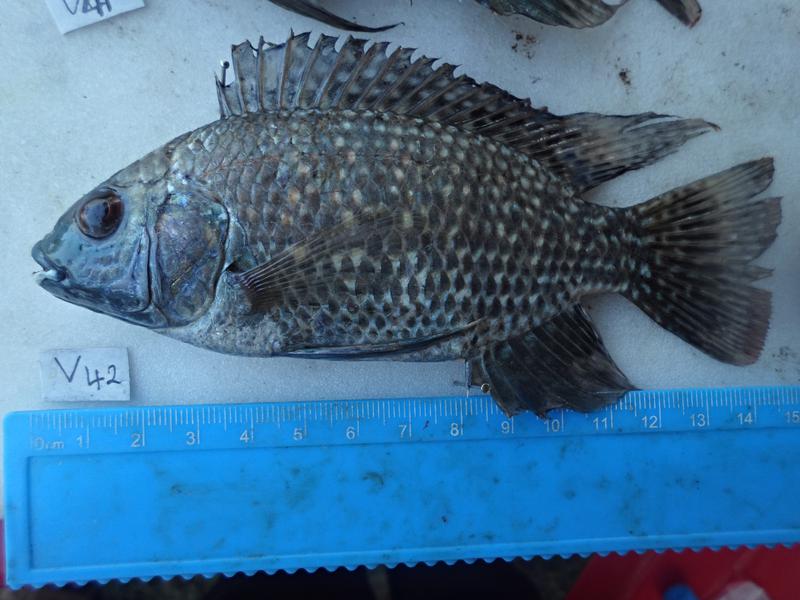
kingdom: Animalia
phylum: Chordata
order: Perciformes
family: Cichlidae
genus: Oreochromis
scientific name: Oreochromis leucostictus
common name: Blue spotted tilapia
